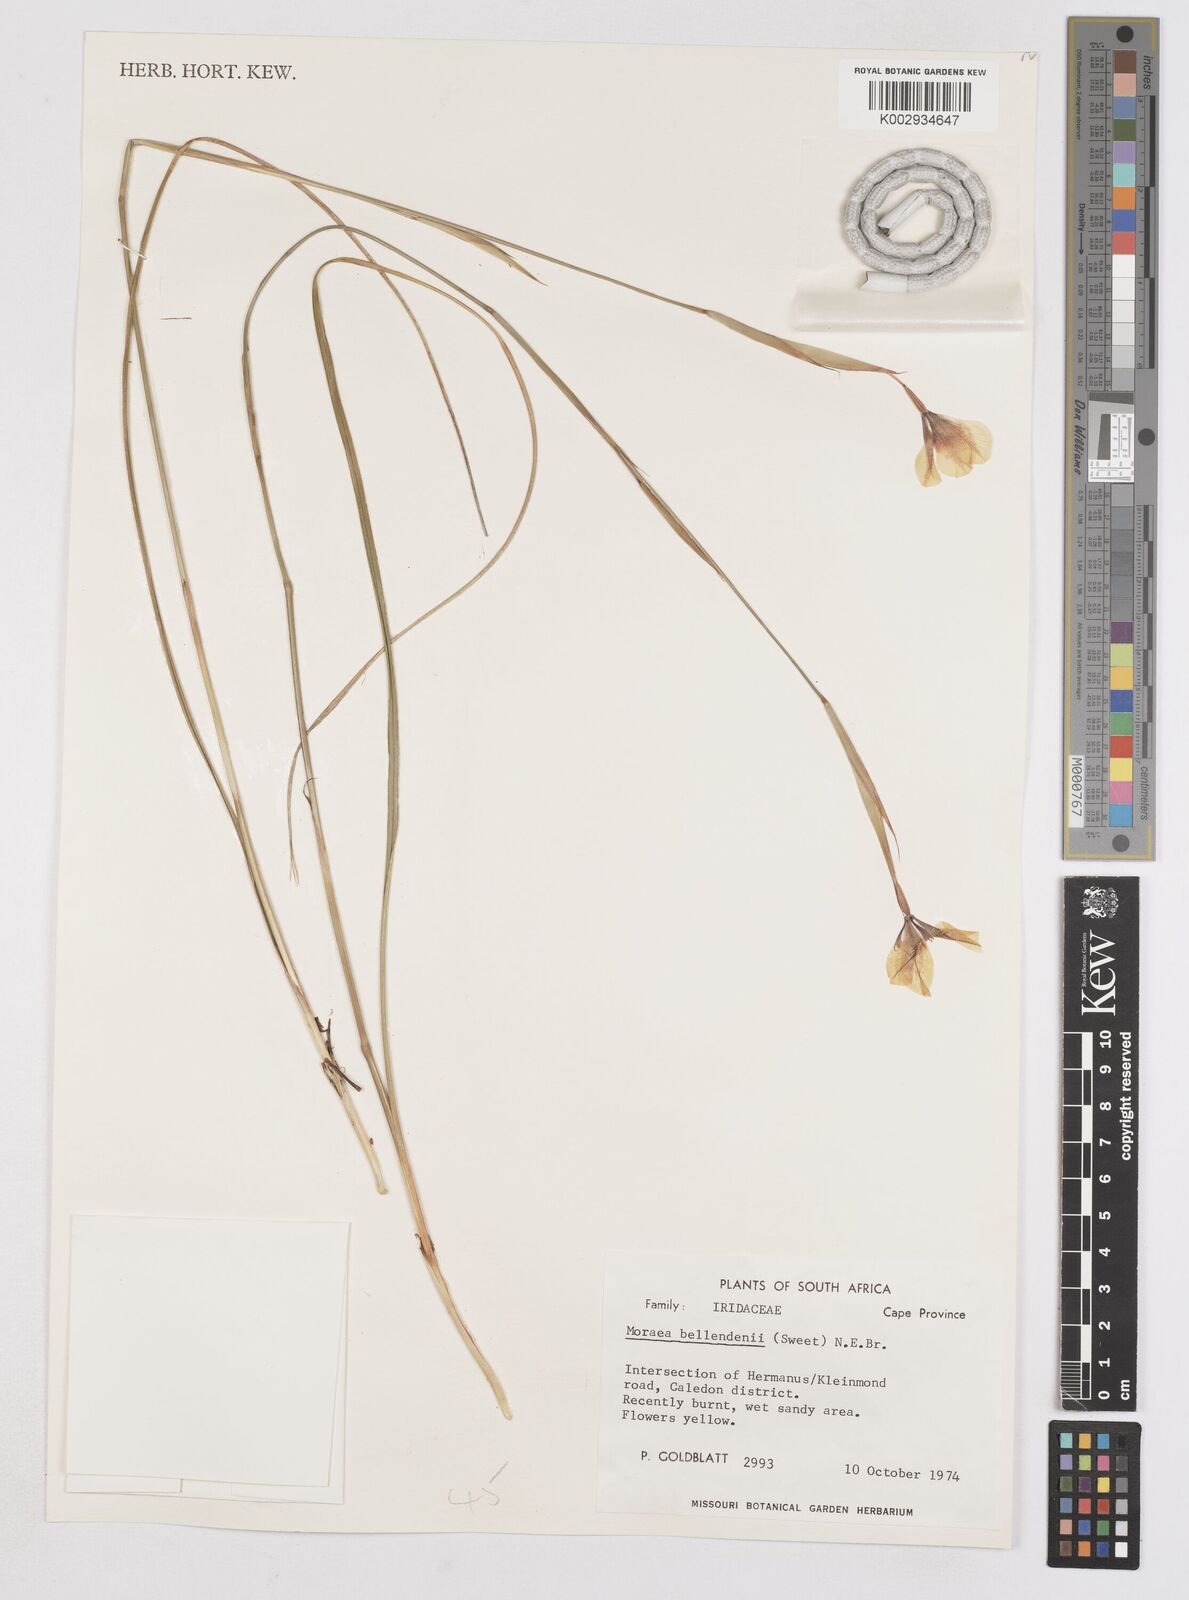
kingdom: Plantae
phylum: Tracheophyta
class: Liliopsida
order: Asparagales
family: Iridaceae
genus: Moraea
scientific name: Moraea bellendenii
